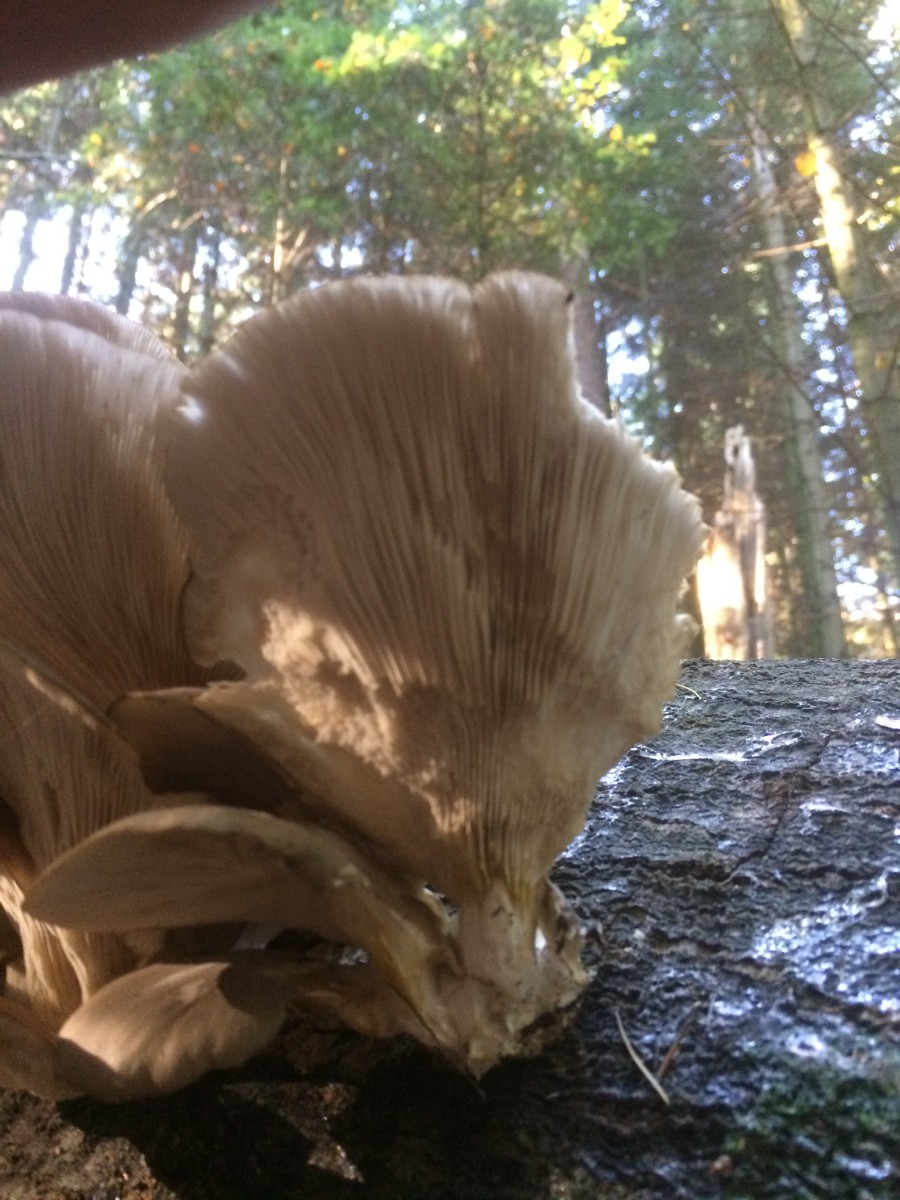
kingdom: Fungi
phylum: Basidiomycota
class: Agaricomycetes
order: Agaricales
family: Pleurotaceae
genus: Pleurotus
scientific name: Pleurotus ostreatus
